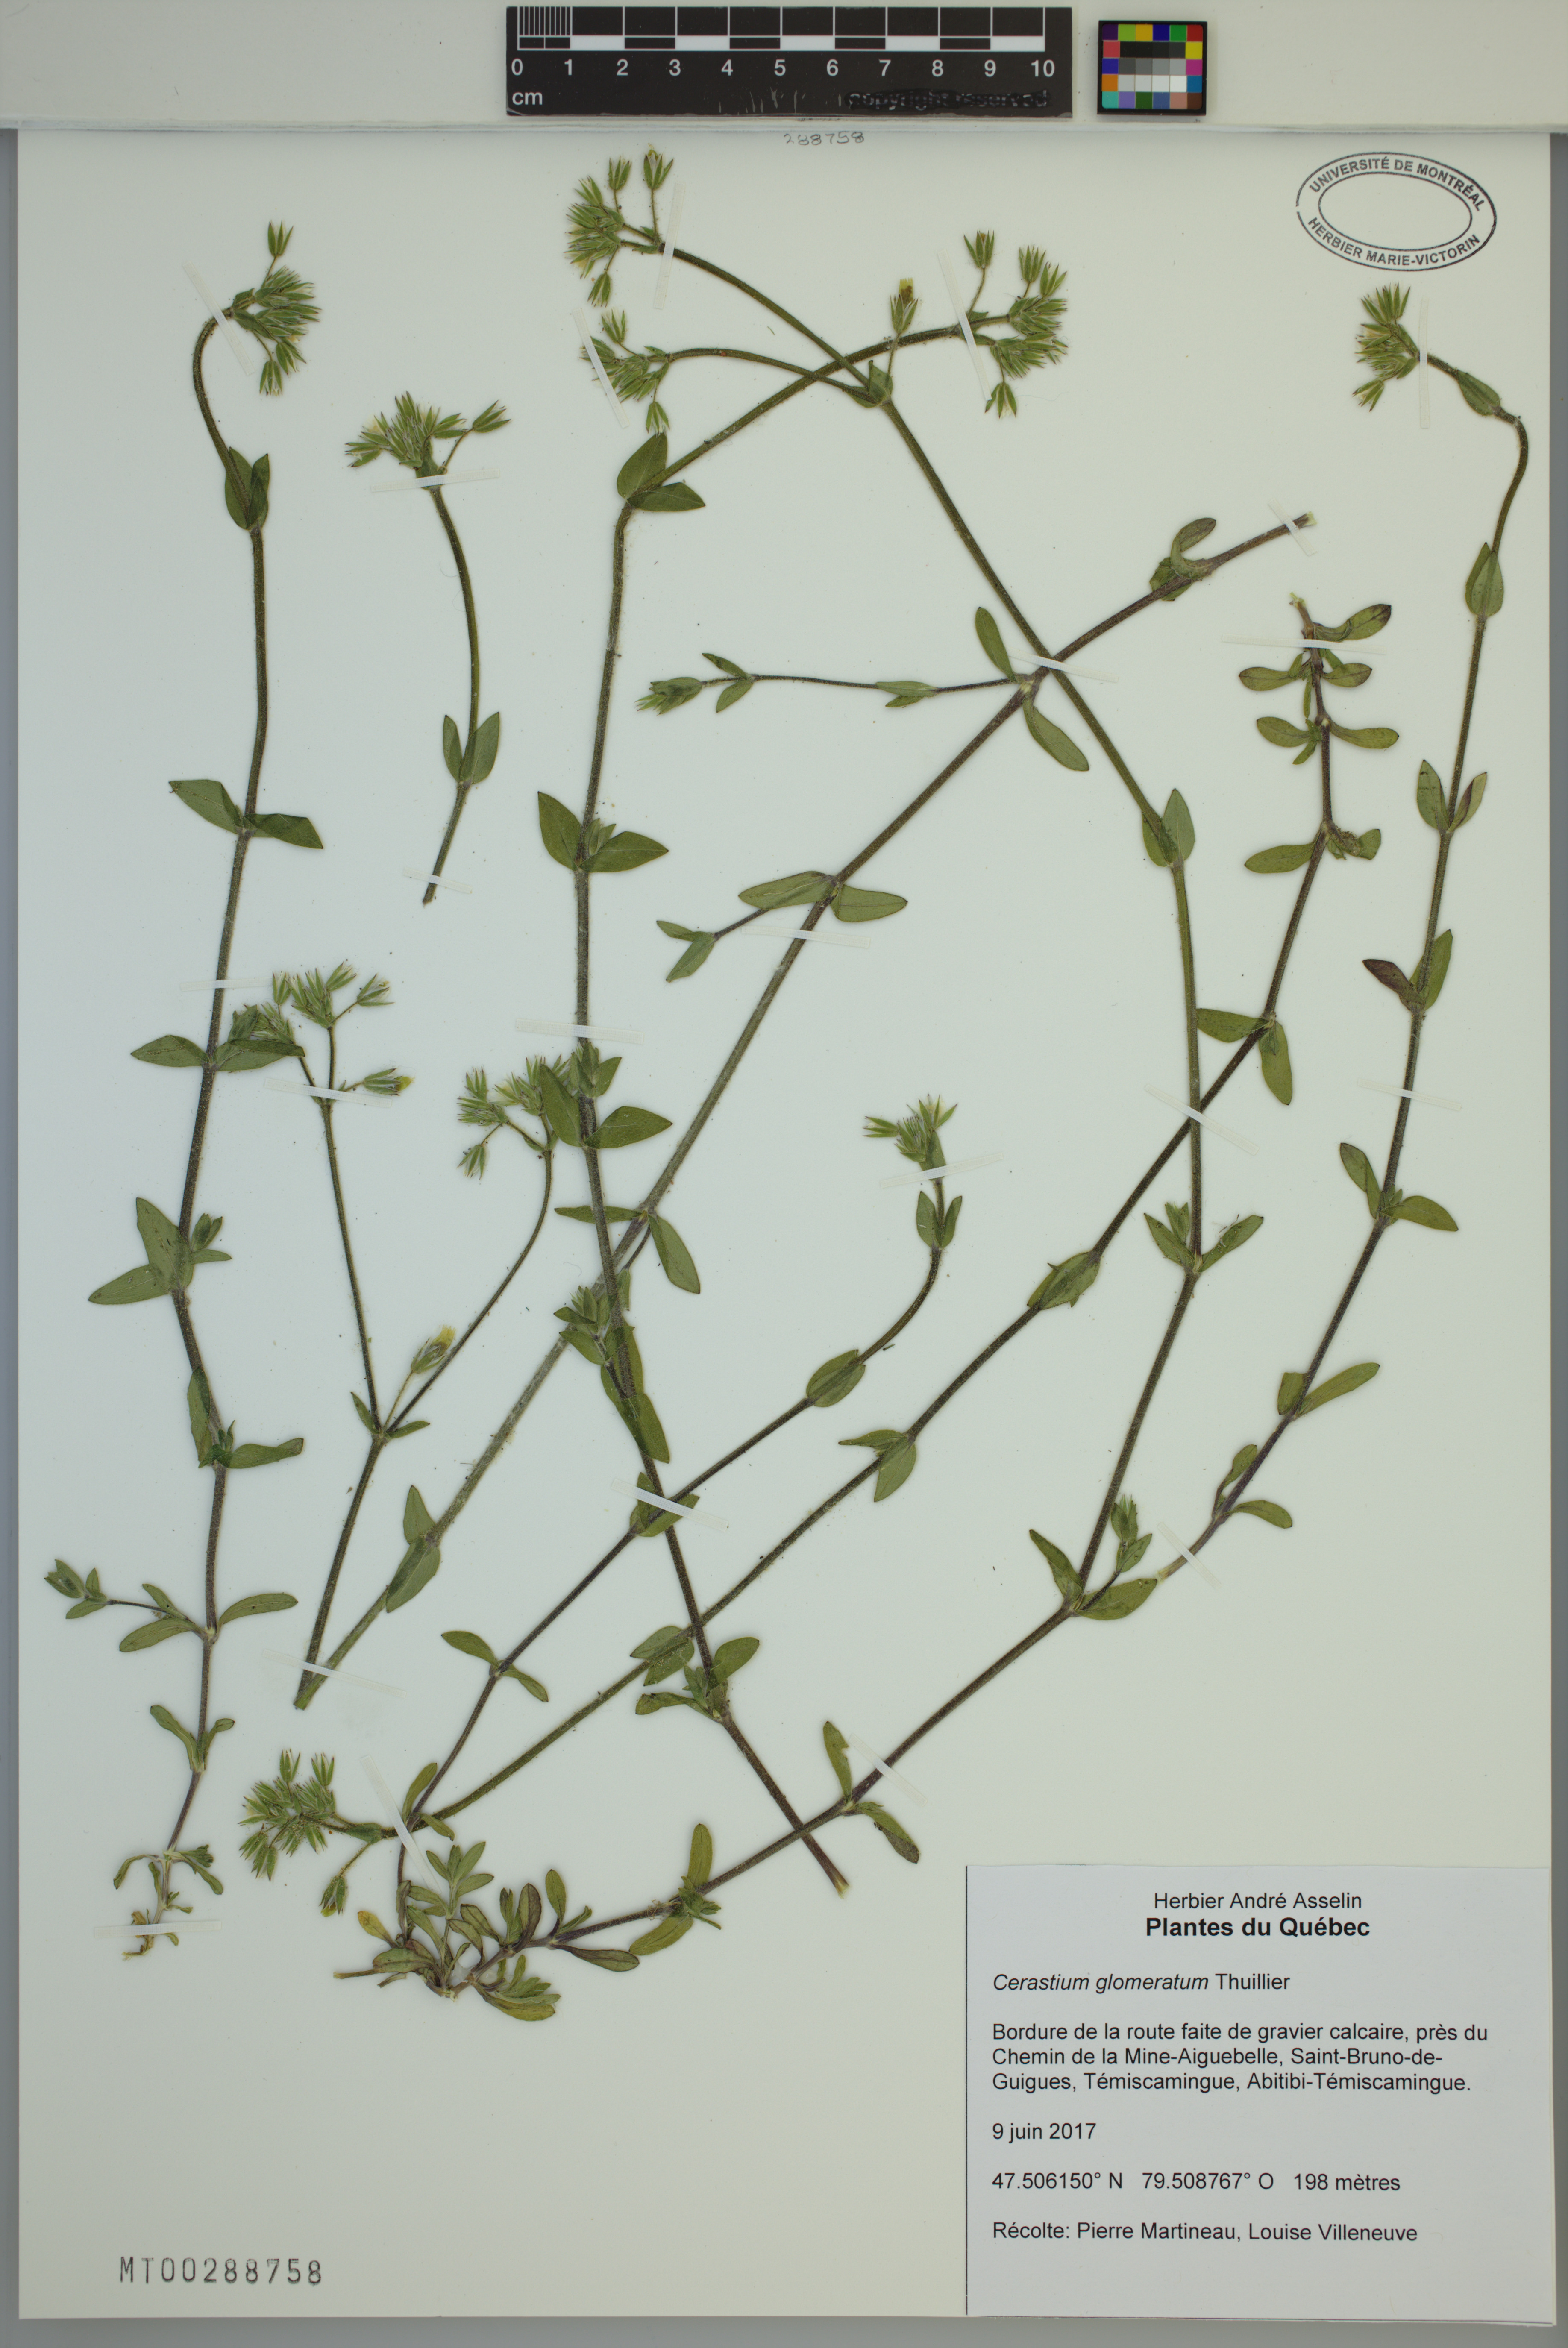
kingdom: Plantae
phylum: Tracheophyta
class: Magnoliopsida
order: Caryophyllales
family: Caryophyllaceae
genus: Cerastium
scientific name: Cerastium glomeratum
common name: Sticky chickweed
